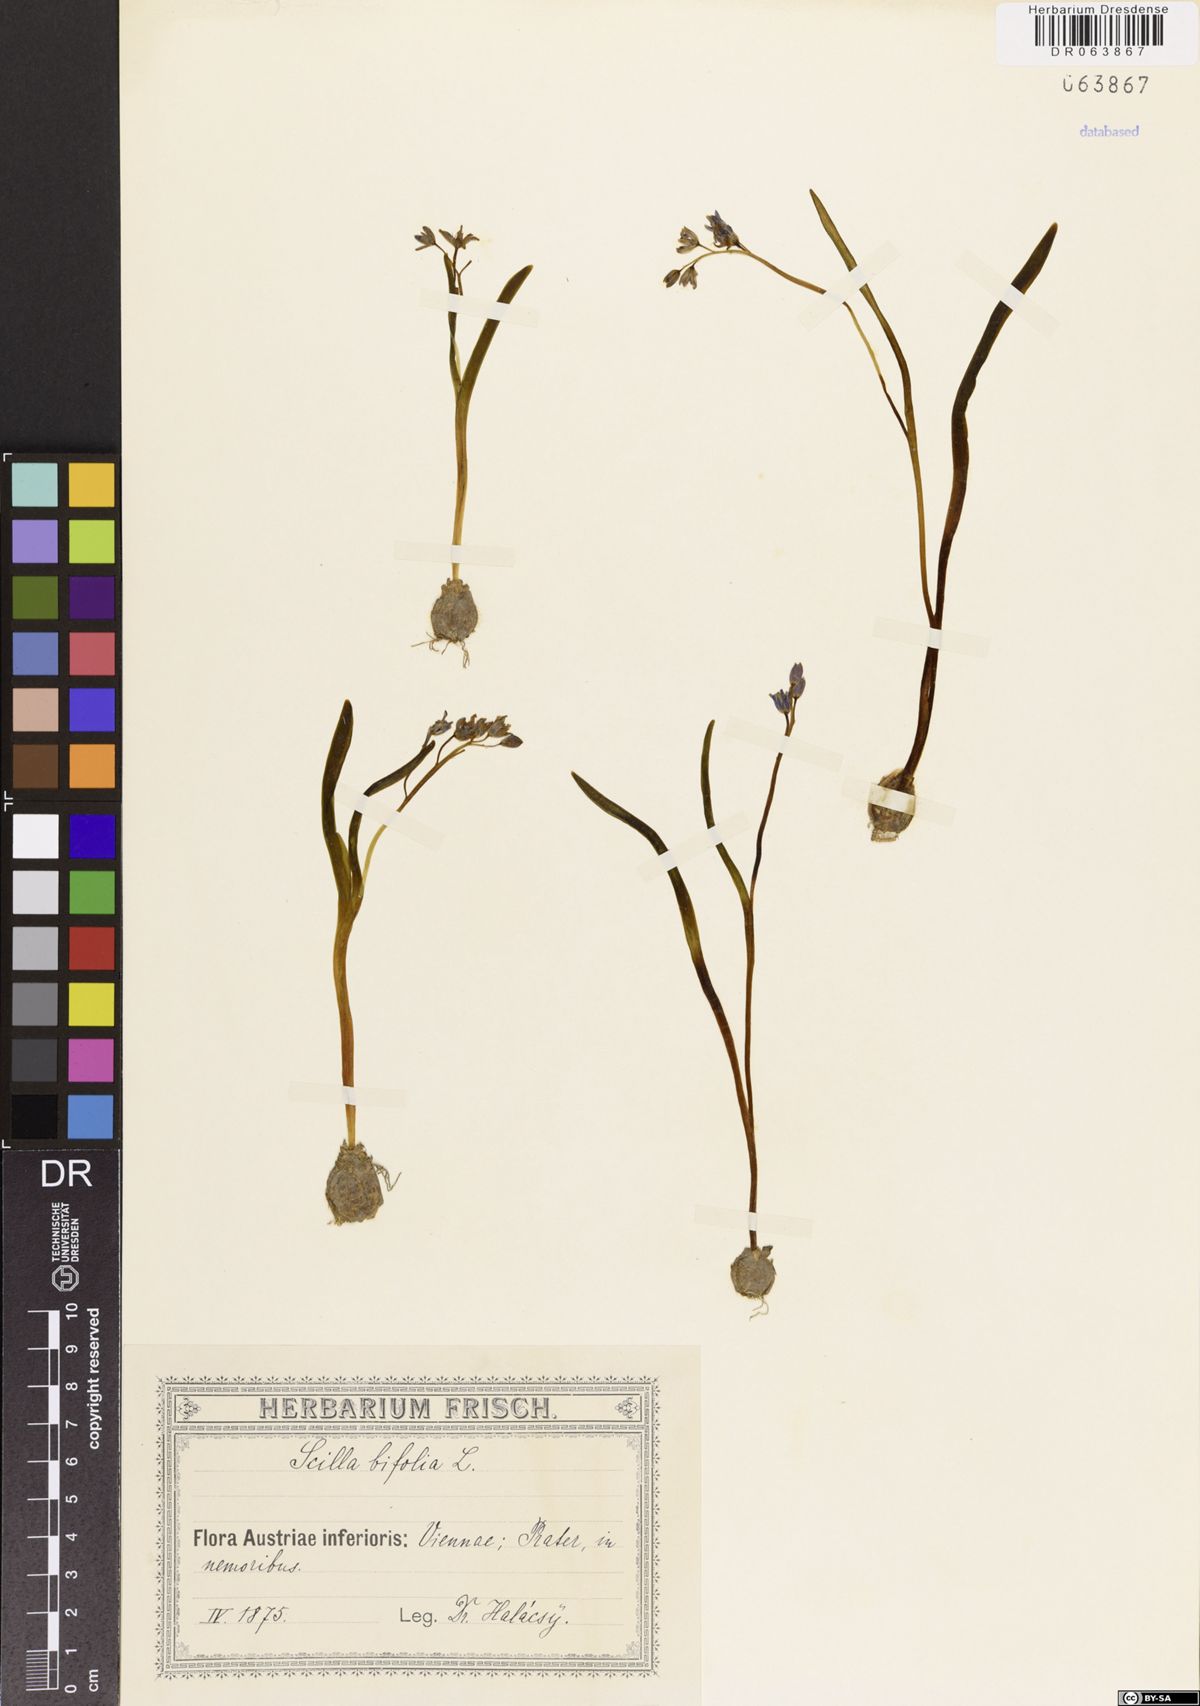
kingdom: Plantae
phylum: Tracheophyta
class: Liliopsida
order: Asparagales
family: Asparagaceae
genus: Scilla
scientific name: Scilla bifolia
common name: Alpine squill
